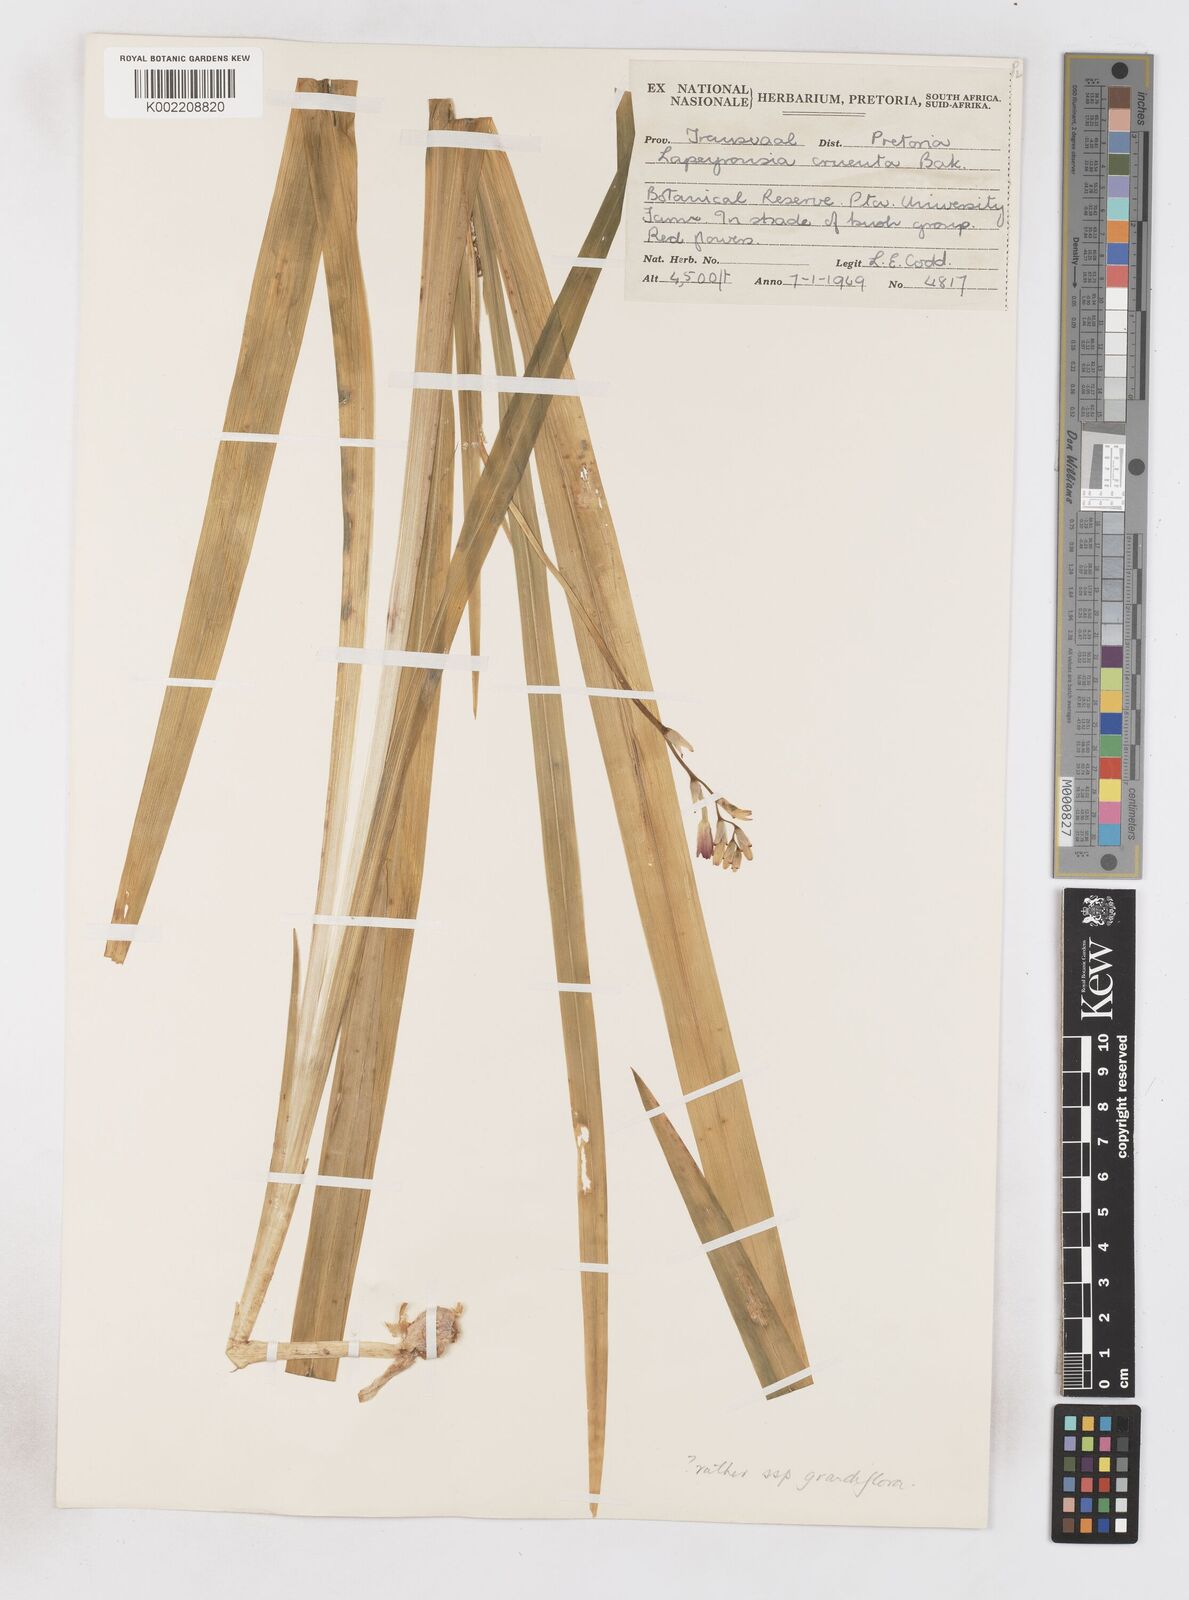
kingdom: Plantae
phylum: Tracheophyta
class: Liliopsida
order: Asparagales
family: Iridaceae
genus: Freesia
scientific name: Freesia grandiflora
